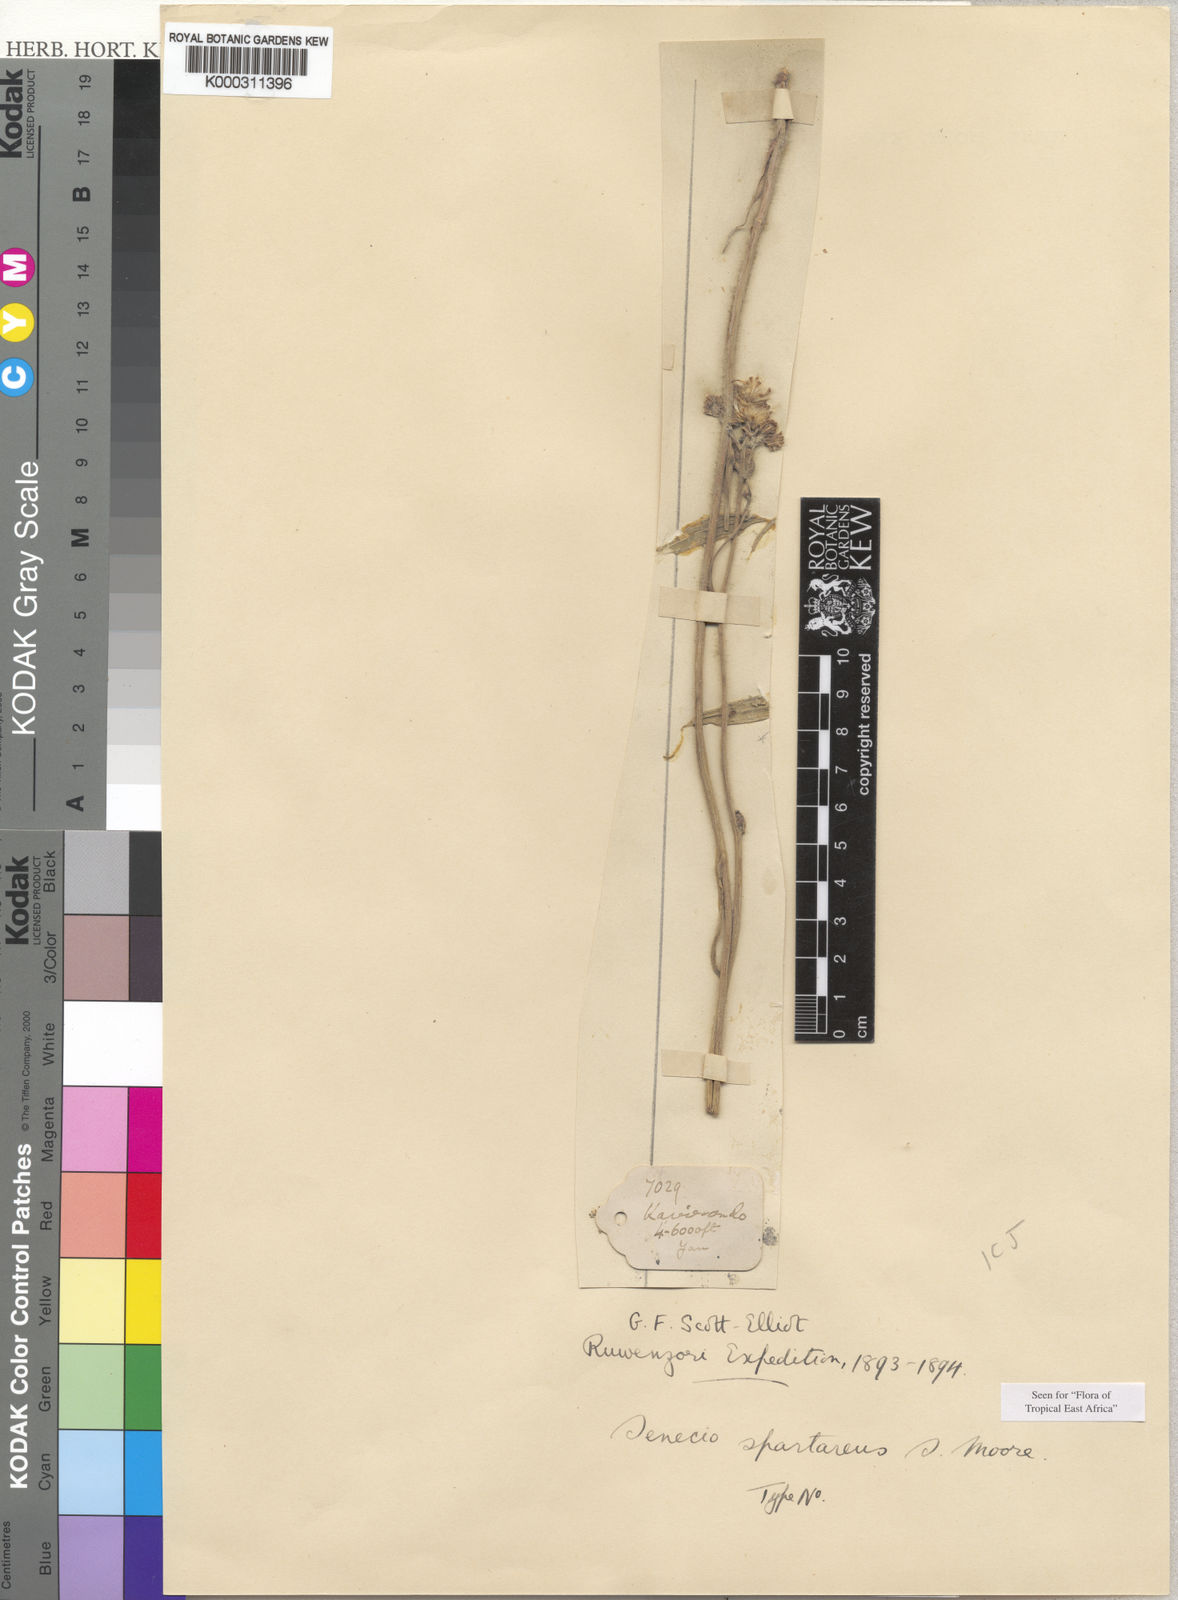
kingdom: Plantae
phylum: Tracheophyta
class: Magnoliopsida
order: Asterales
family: Asteraceae
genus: Senecio
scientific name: Senecio spartareus
